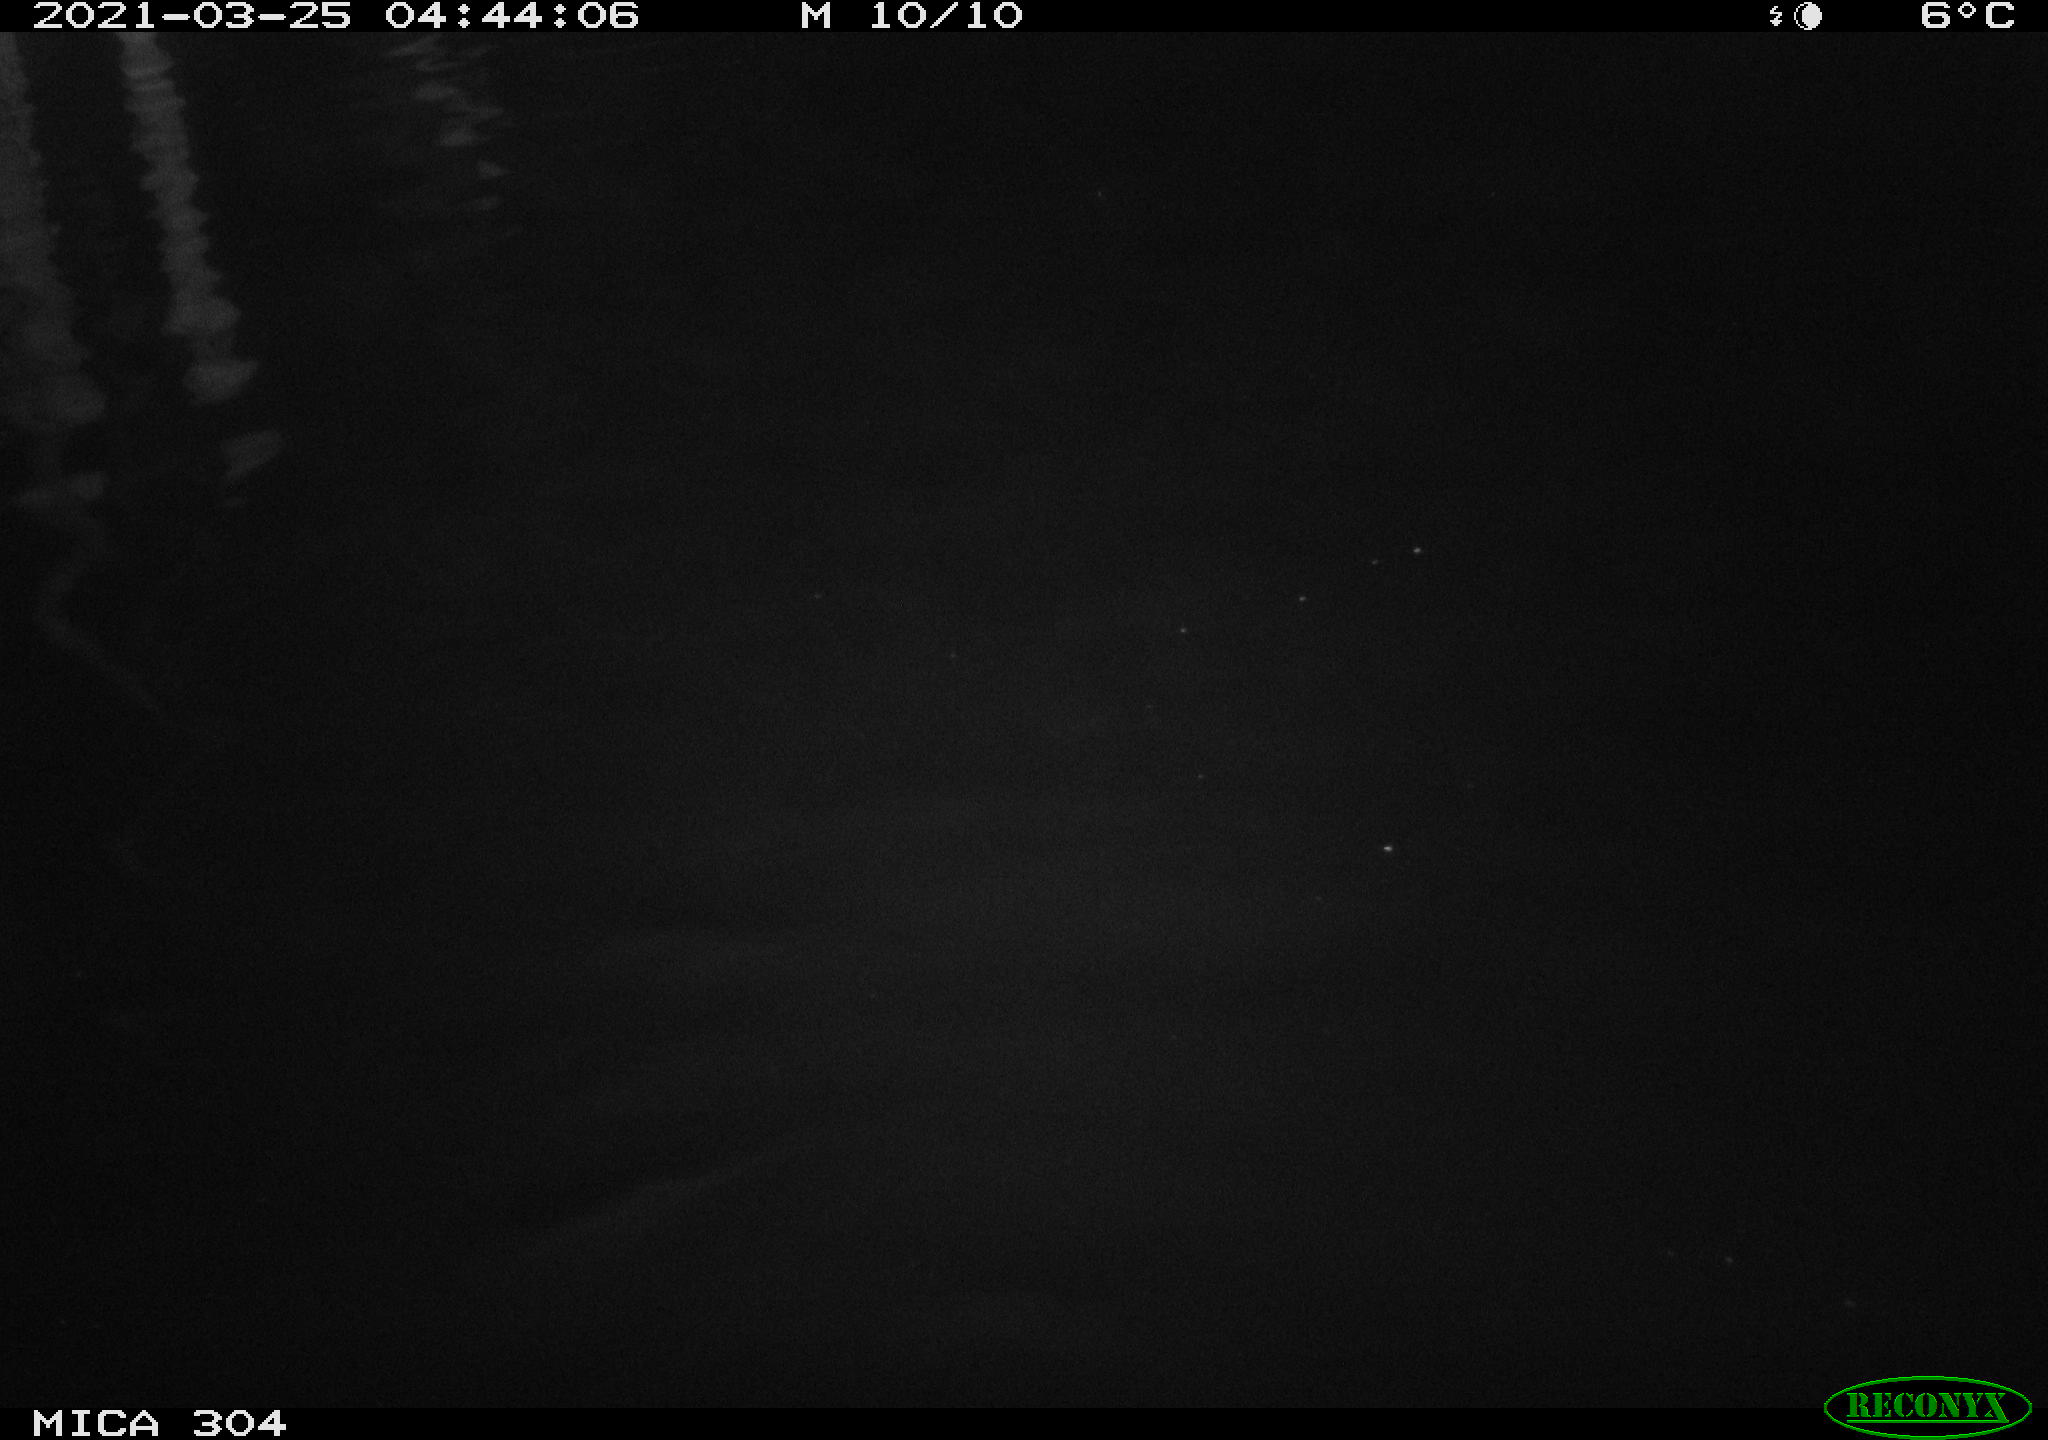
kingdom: Animalia
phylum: Chordata
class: Aves
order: Anseriformes
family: Anatidae
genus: Anas
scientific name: Anas platyrhynchos
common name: Mallard
